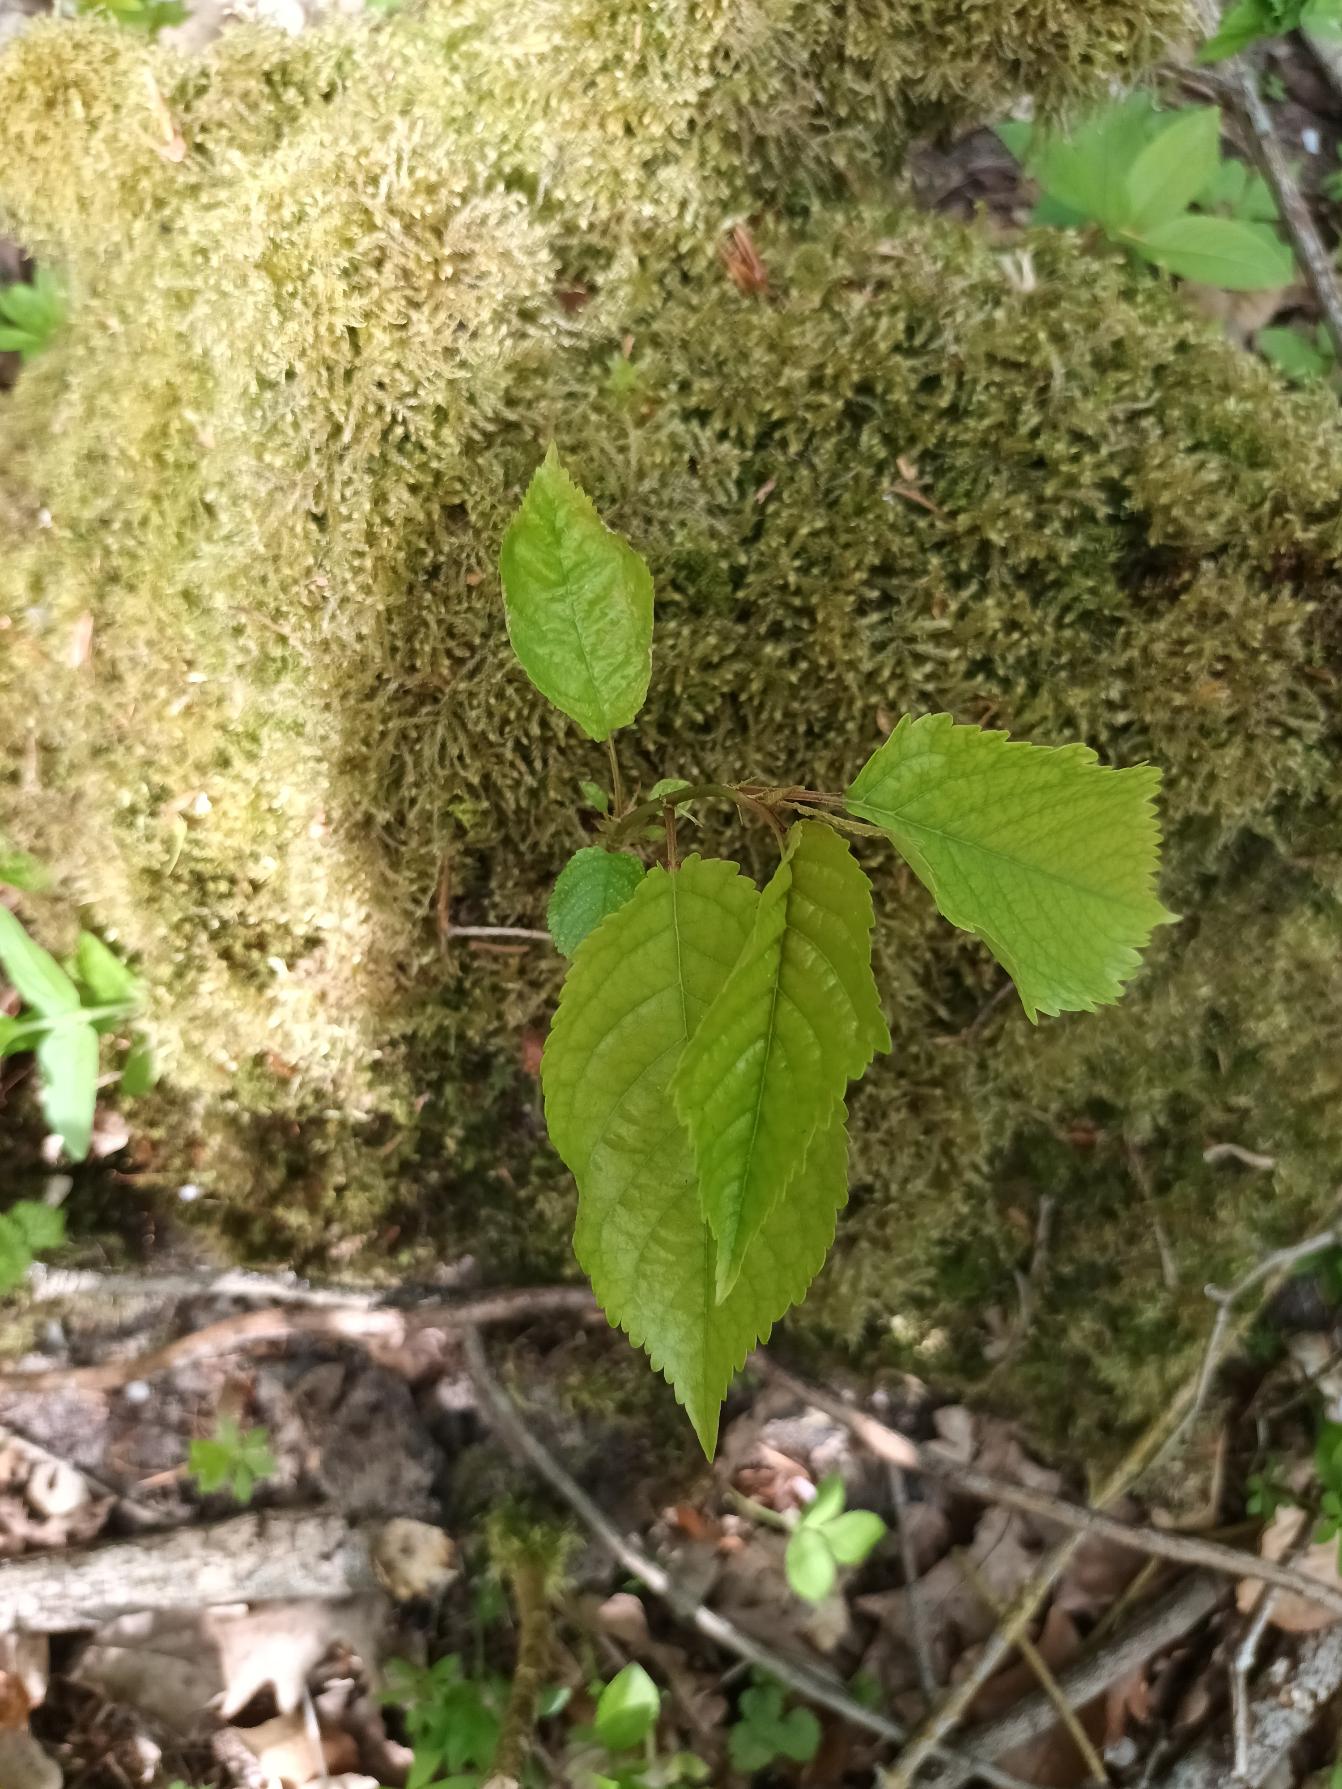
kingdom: Plantae
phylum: Tracheophyta
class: Magnoliopsida
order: Rosales
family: Rosaceae
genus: Prunus
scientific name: Prunus avium
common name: Fugle-kirsebær
